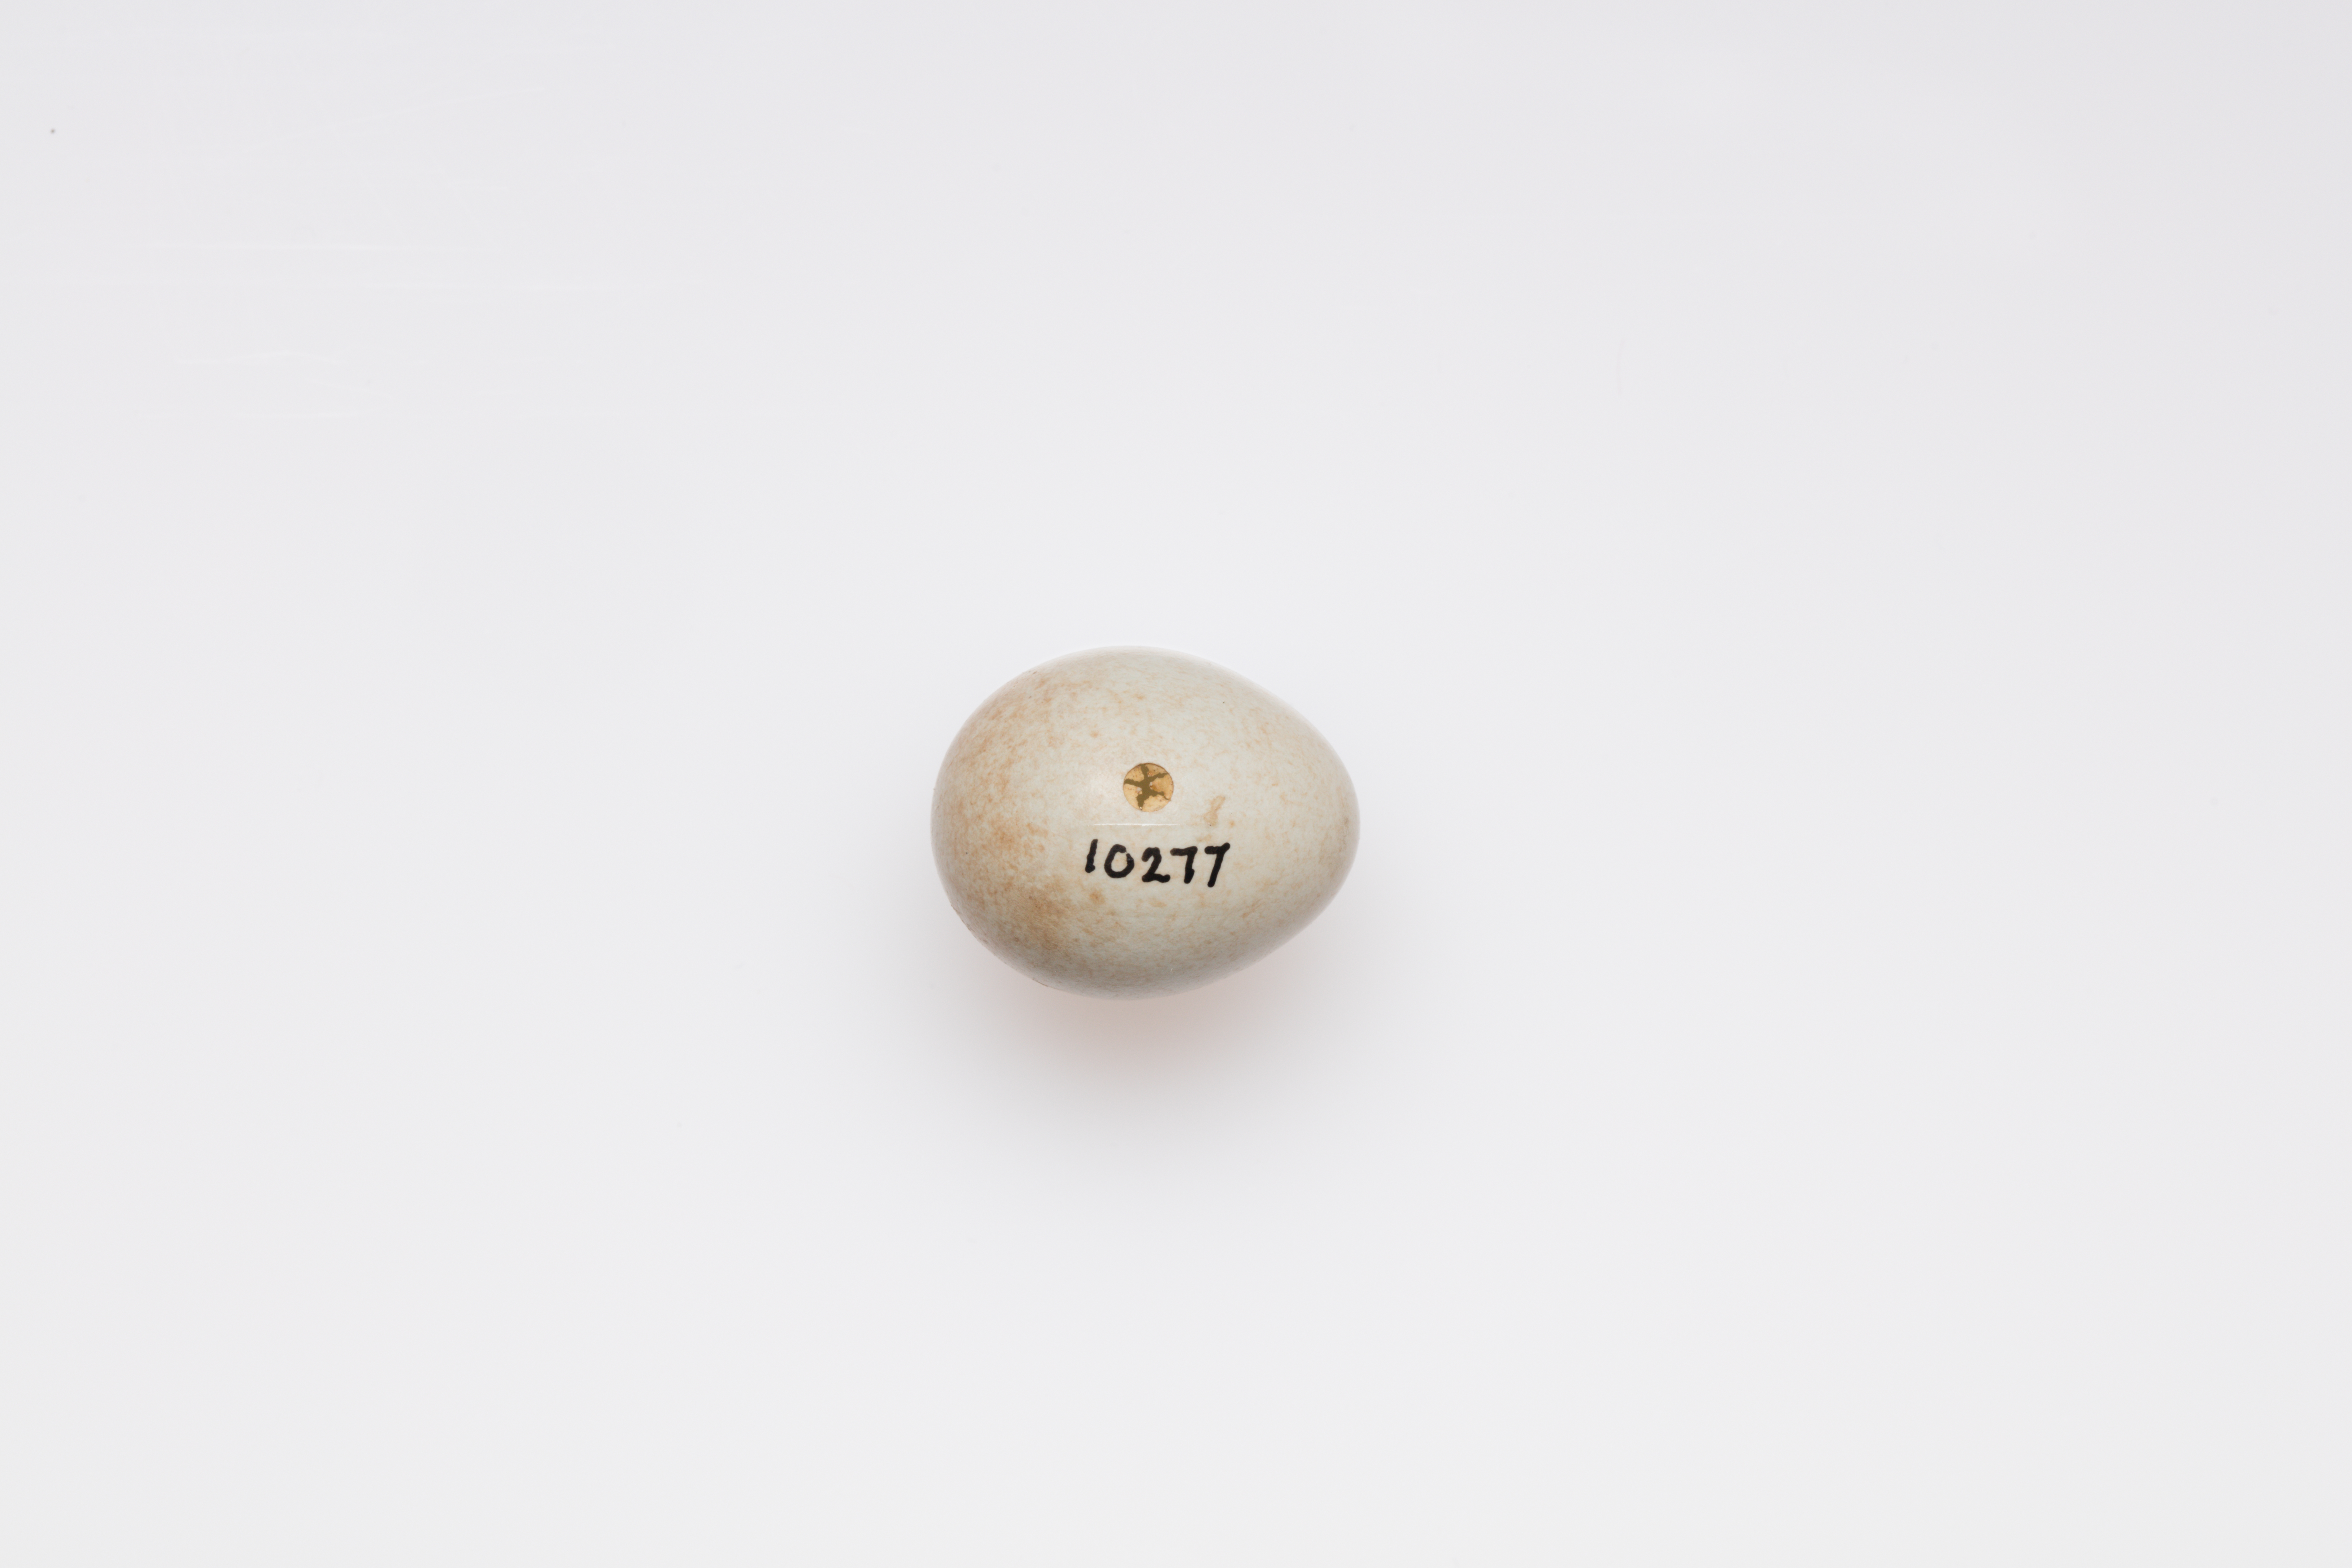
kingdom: Animalia
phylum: Chordata
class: Aves
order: Passeriformes
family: Muscicapidae
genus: Saxicola
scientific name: Saxicola torquatus
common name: African stonechat
